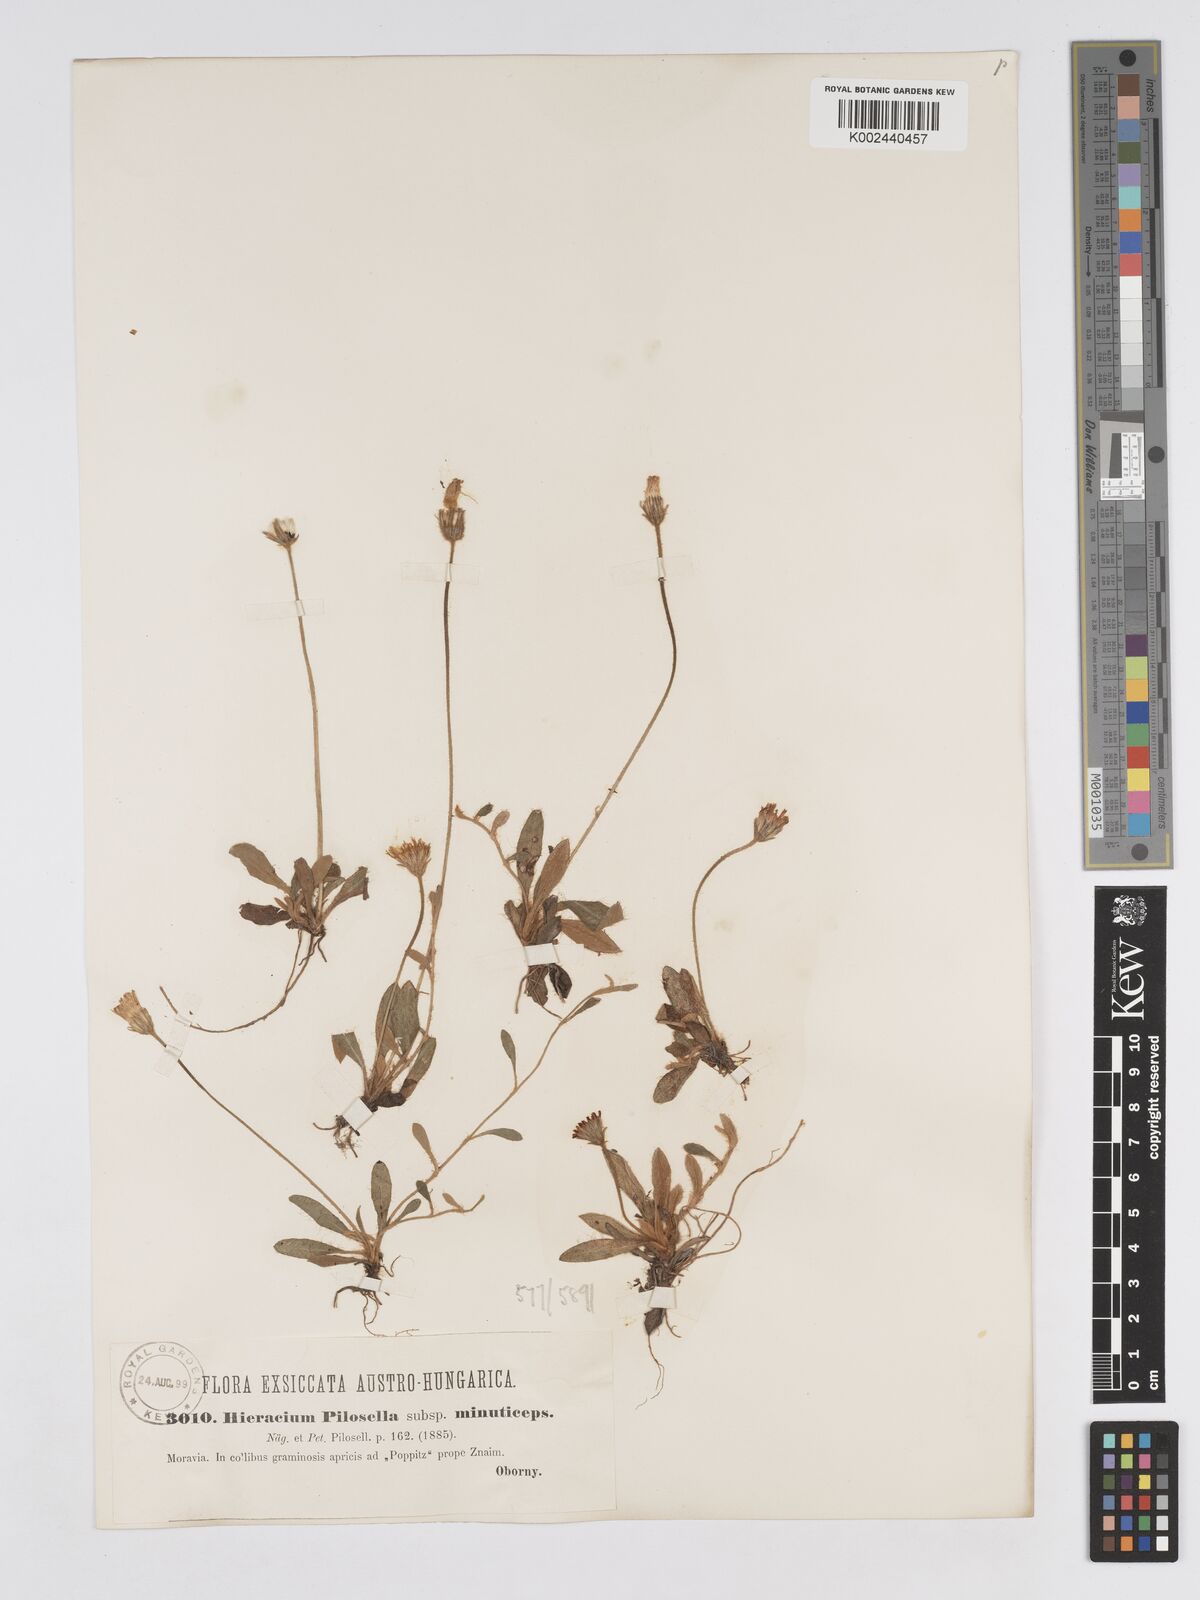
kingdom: Plantae
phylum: Tracheophyta
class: Magnoliopsida
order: Asterales
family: Asteraceae
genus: Pilosella
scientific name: Pilosella officinarum
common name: Mouse-ear hawkweed
